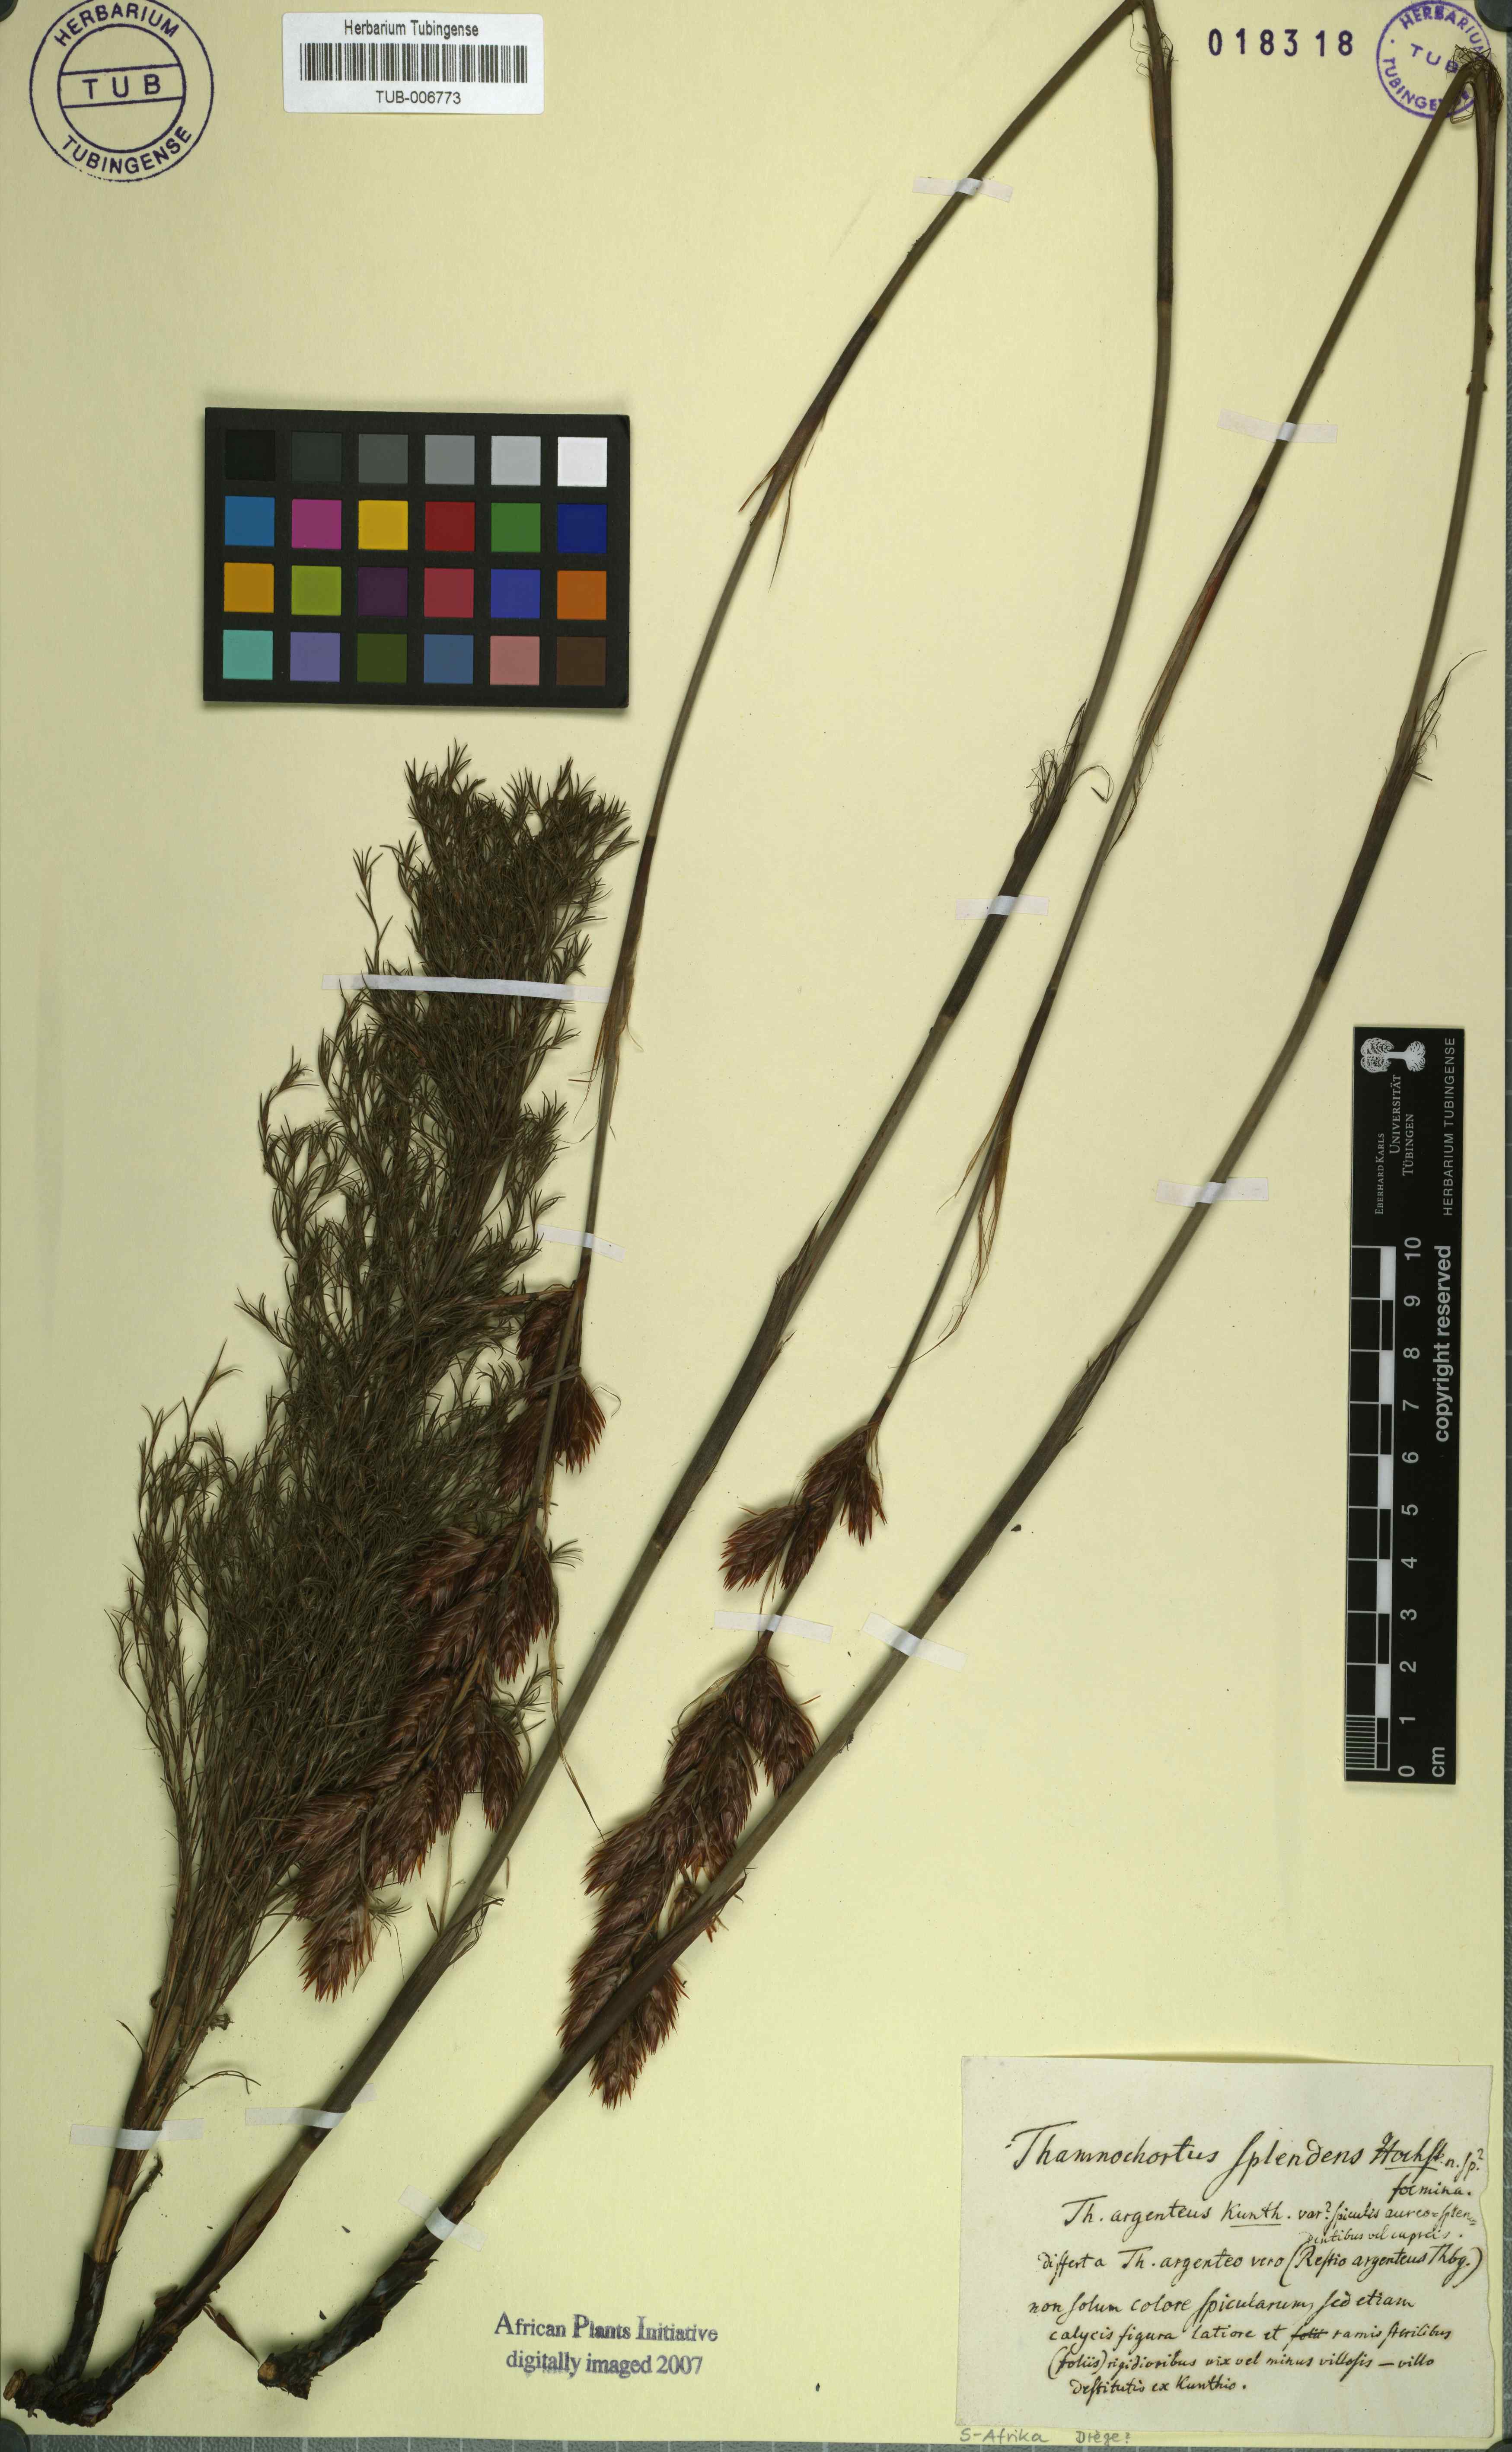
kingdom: Plantae
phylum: Tracheophyta
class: Liliopsida
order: Poales
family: Restionaceae
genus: Hypodiscus
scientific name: Hypodiscus argenteus
